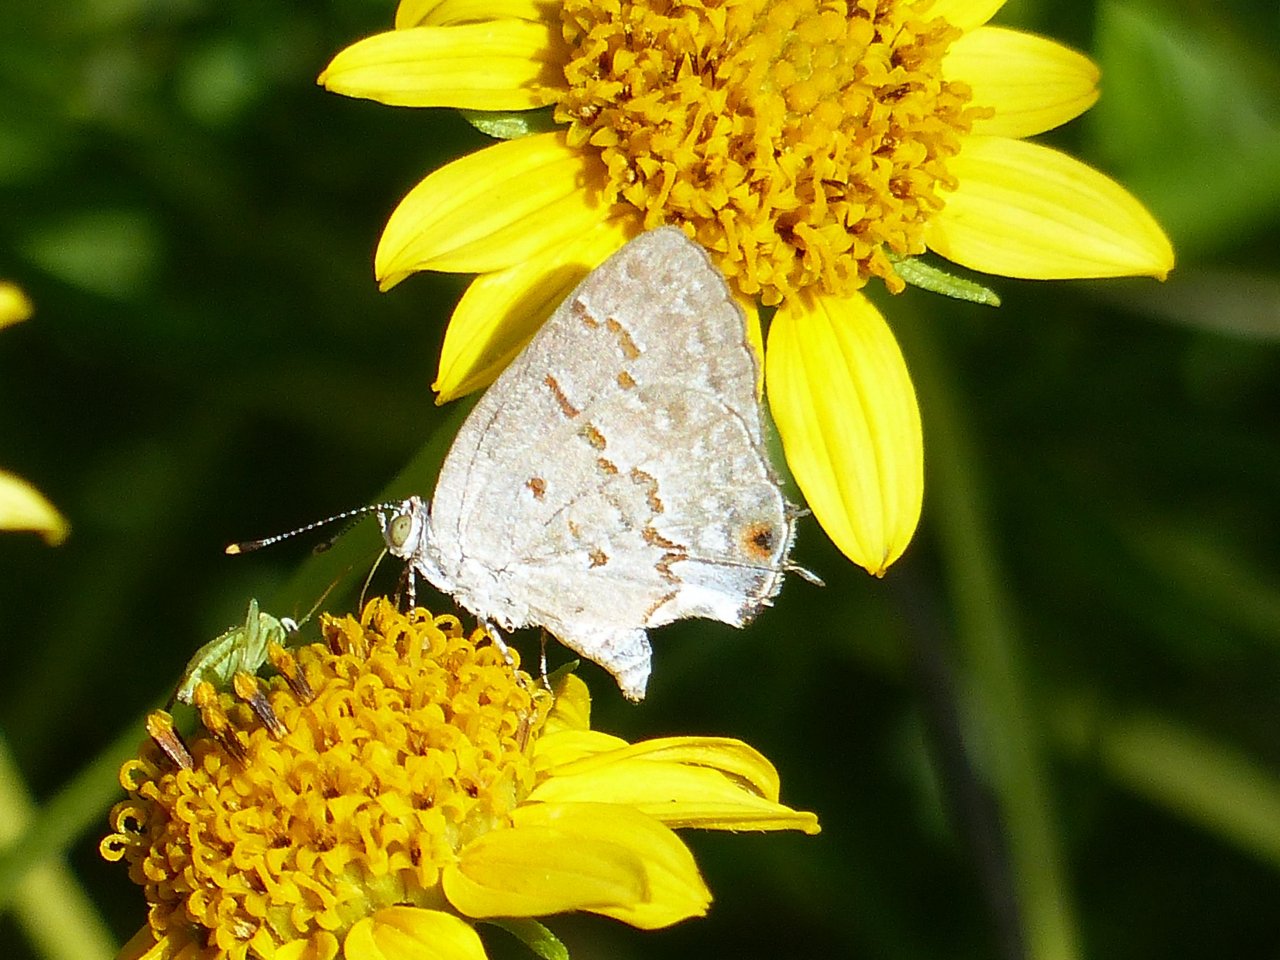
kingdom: Animalia
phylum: Arthropoda
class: Insecta
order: Lepidoptera
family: Lycaenidae
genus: Ministrymon
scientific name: Ministrymon clytie
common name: Clytie Ministreak
